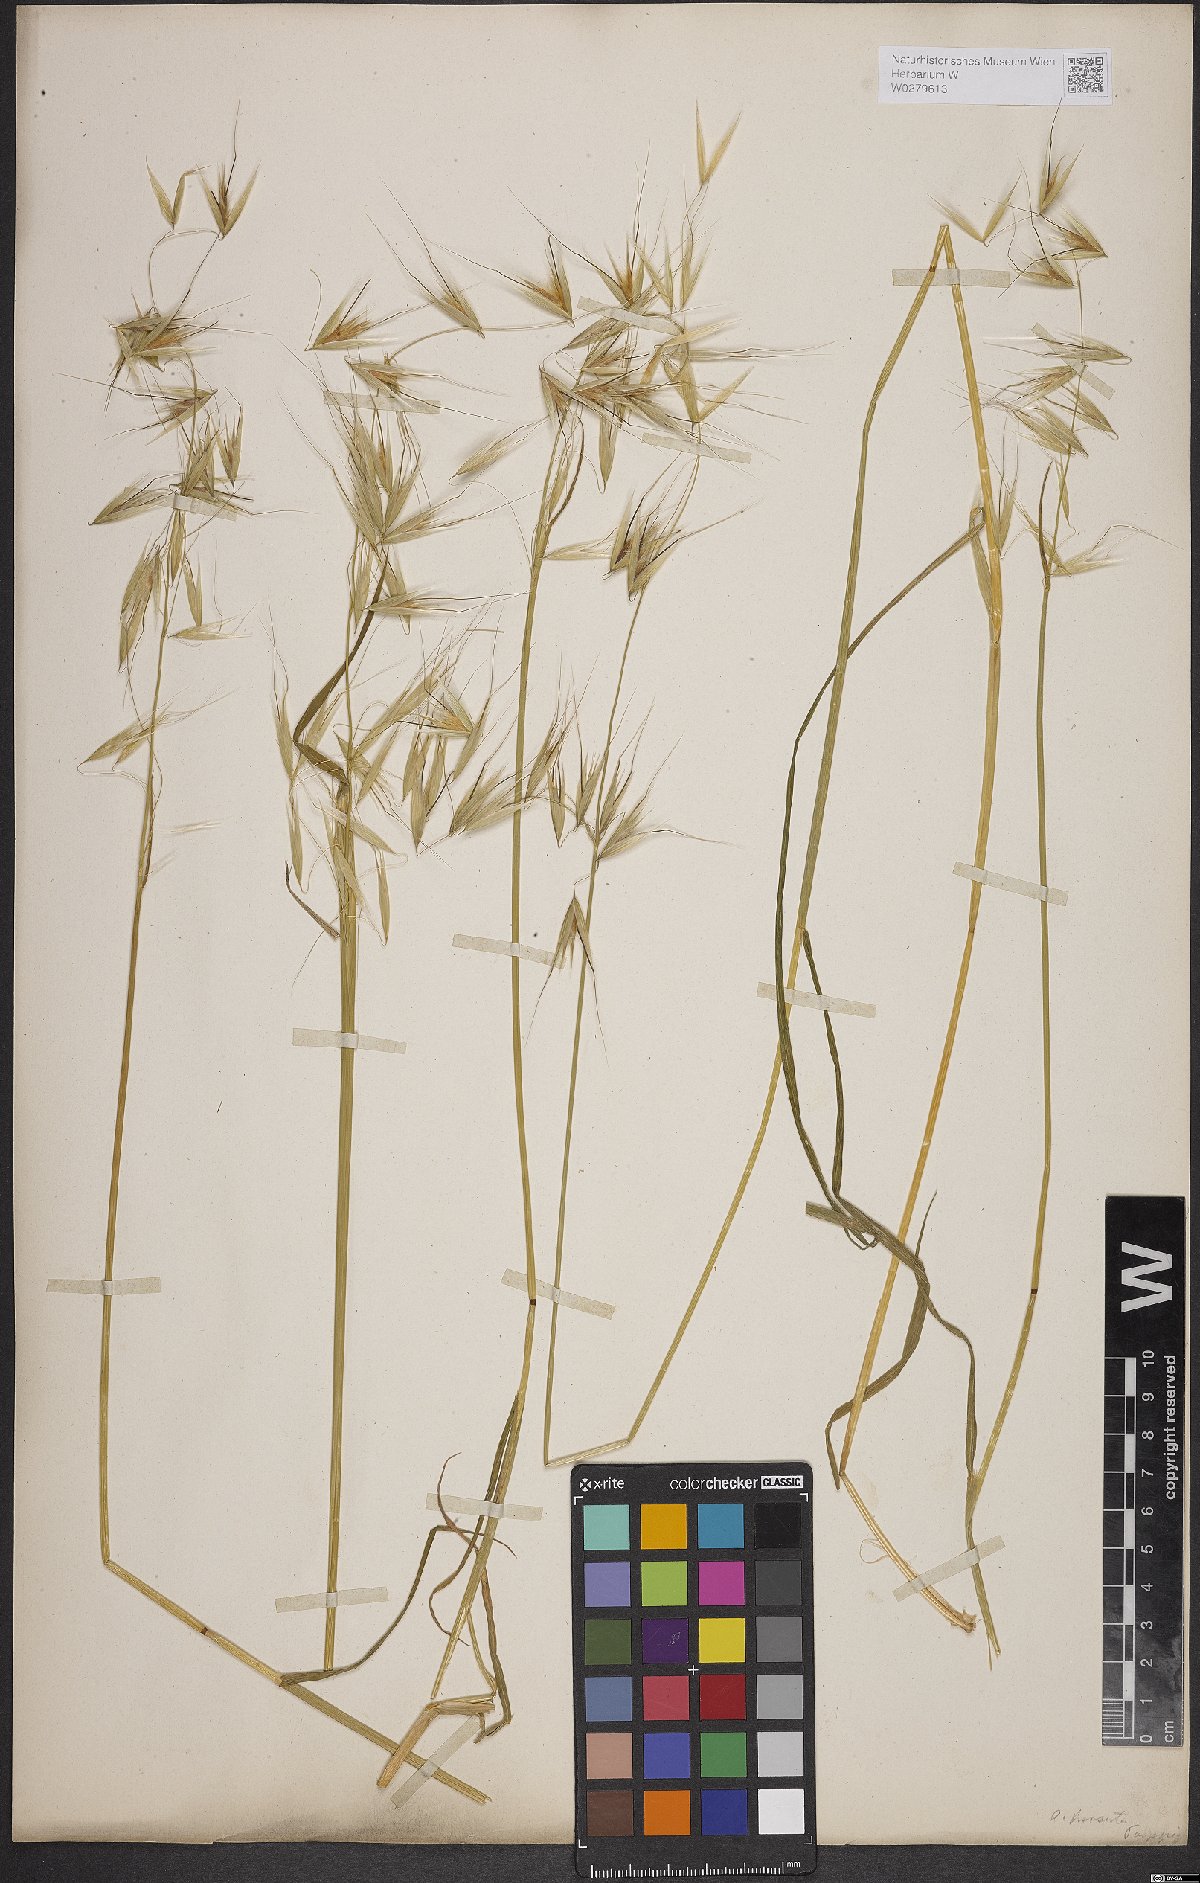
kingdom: Plantae
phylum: Tracheophyta
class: Liliopsida
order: Poales
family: Poaceae
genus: Avena
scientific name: Avena barbata
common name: Slender oat
